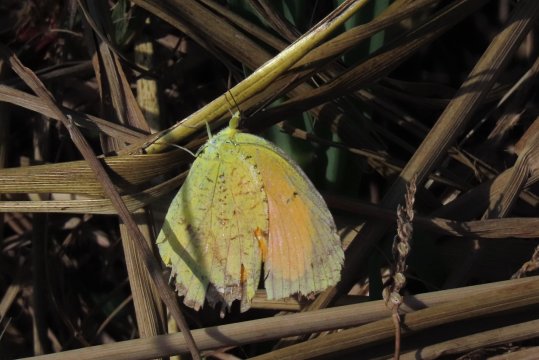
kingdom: Animalia
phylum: Arthropoda
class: Insecta
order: Lepidoptera
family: Pieridae
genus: Abaeis
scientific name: Abaeis nicippe
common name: Sleepy Orange
